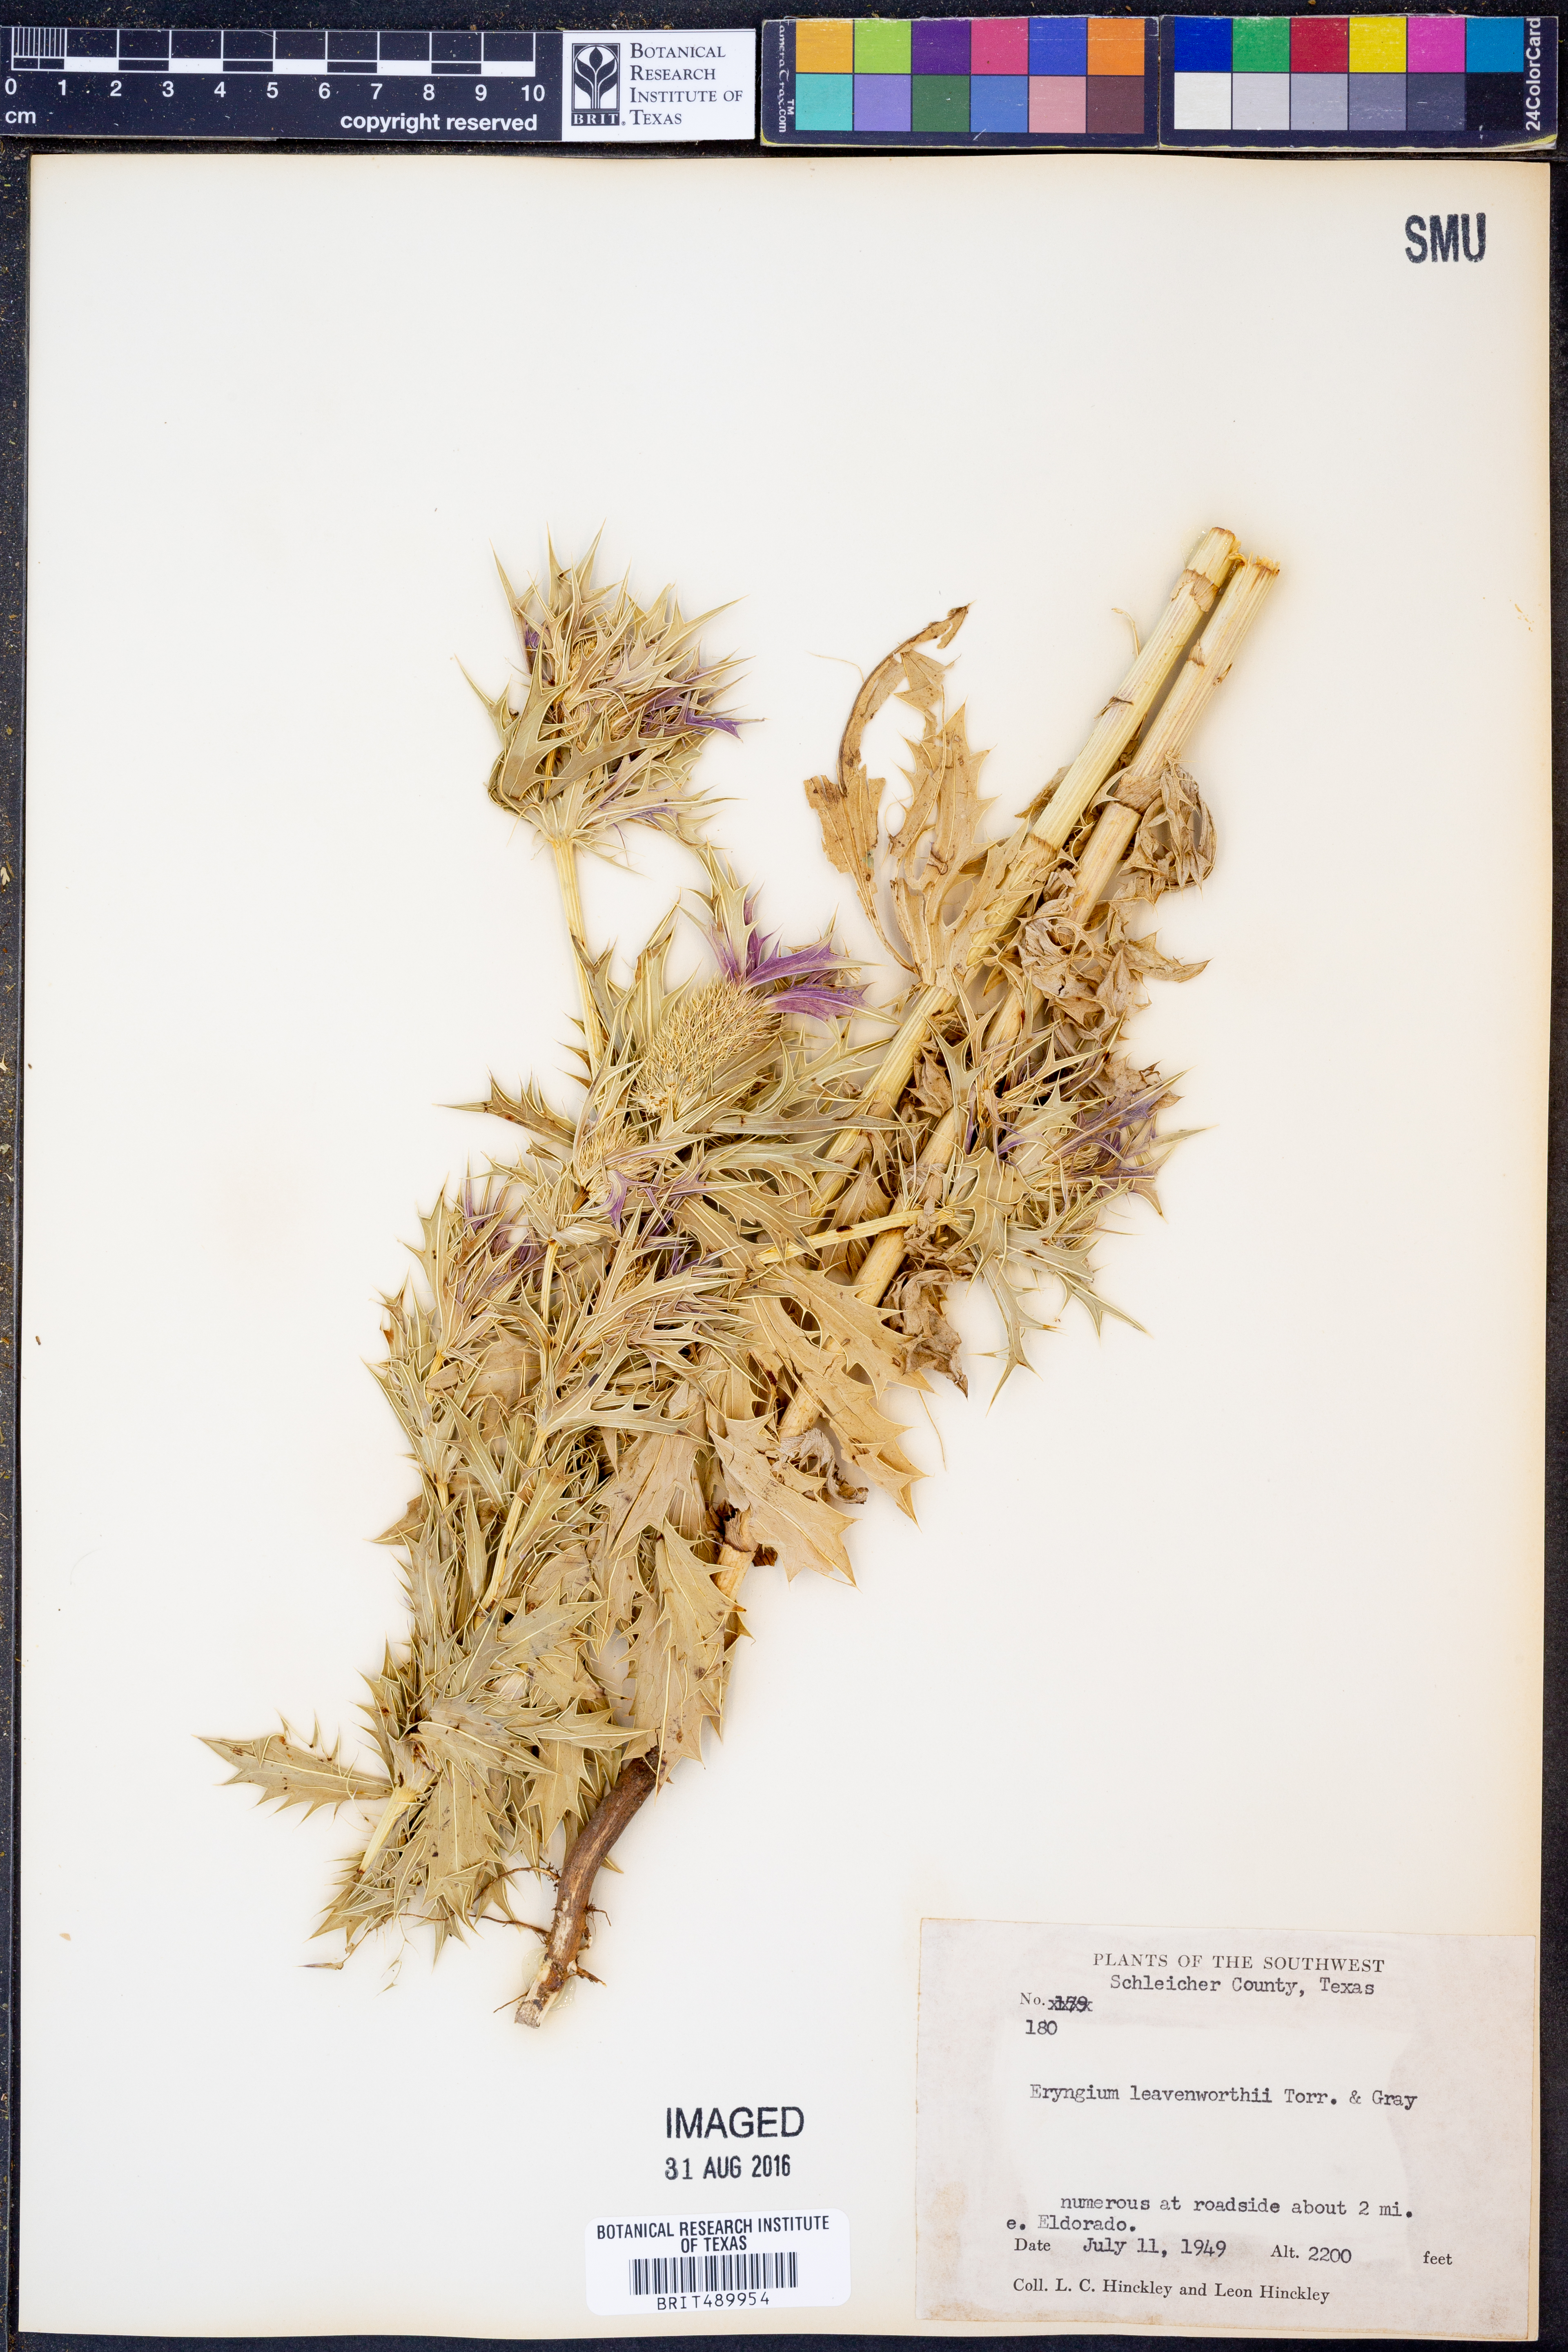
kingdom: Plantae
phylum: Tracheophyta
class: Magnoliopsida
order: Apiales
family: Apiaceae
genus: Eryngium
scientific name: Eryngium leavenworthii
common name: Leavenworth's eryngo
